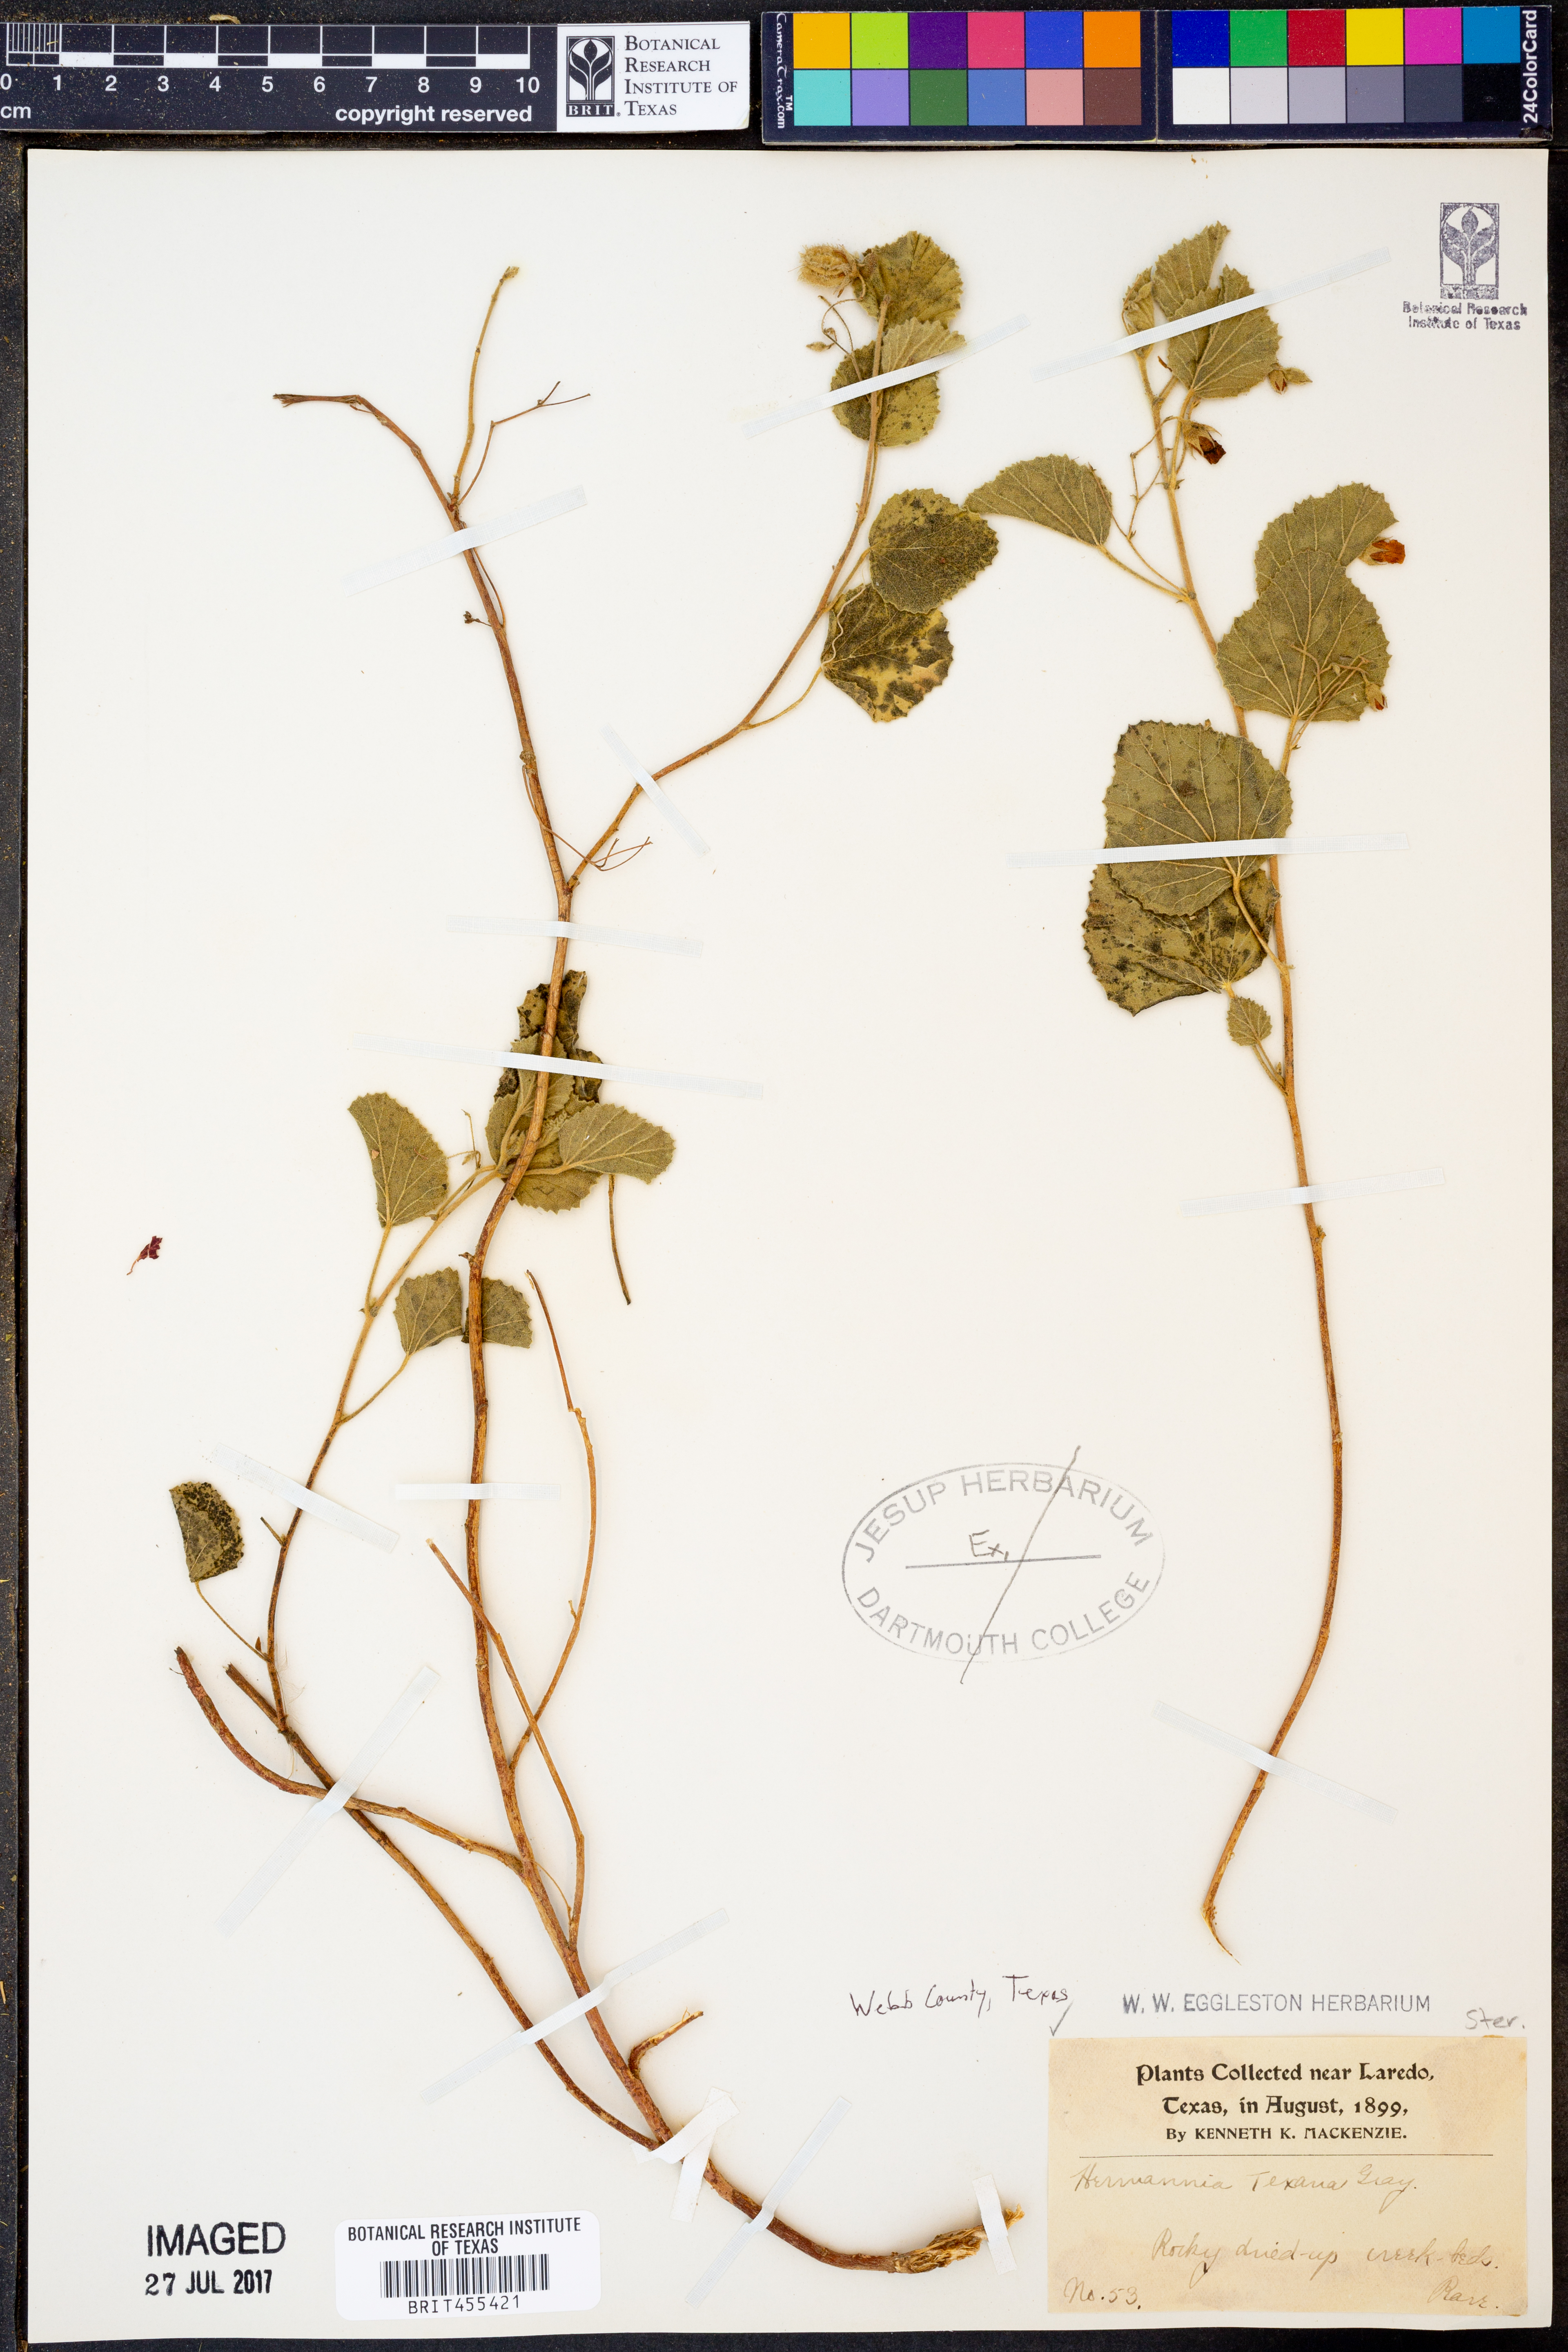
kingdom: Plantae
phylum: Tracheophyta
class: Magnoliopsida
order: Malvales
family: Malvaceae
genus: Hermannia
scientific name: Hermannia texana
